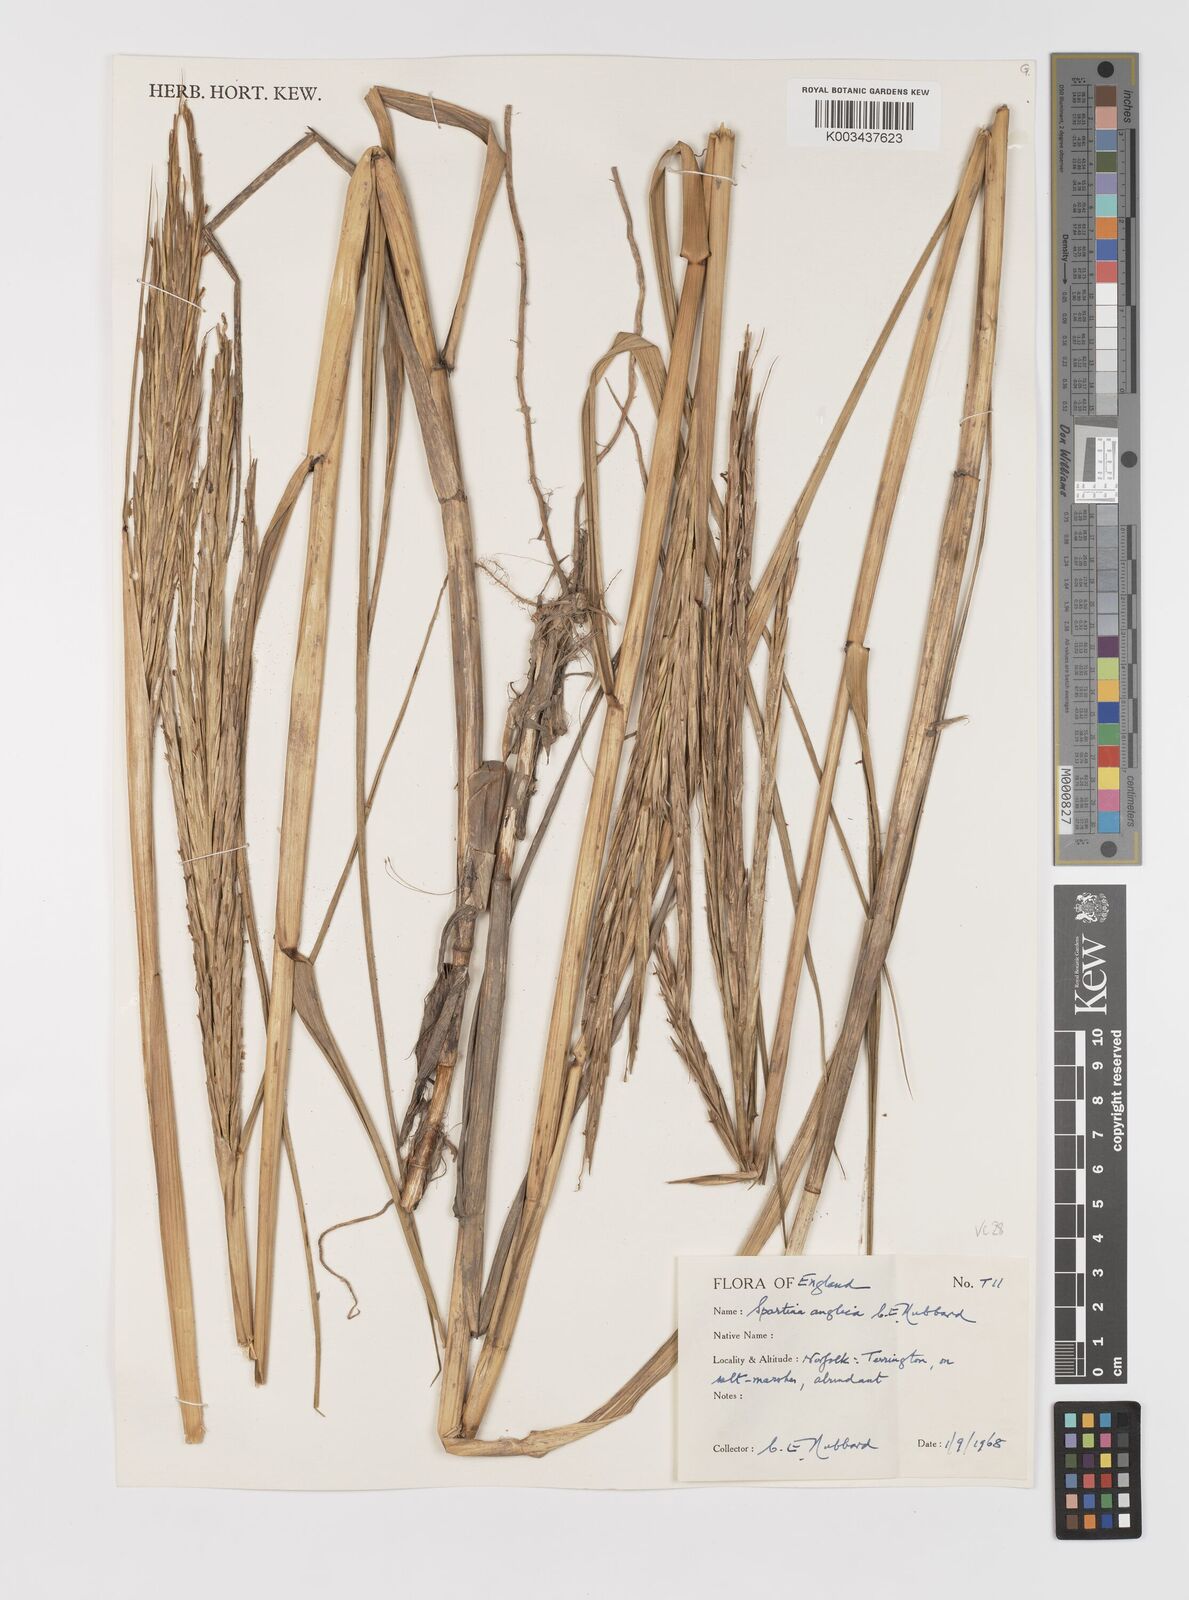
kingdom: Plantae
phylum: Tracheophyta
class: Liliopsida
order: Poales
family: Poaceae
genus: Sporobolus
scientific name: Sporobolus anglicus
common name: English cordgrass
